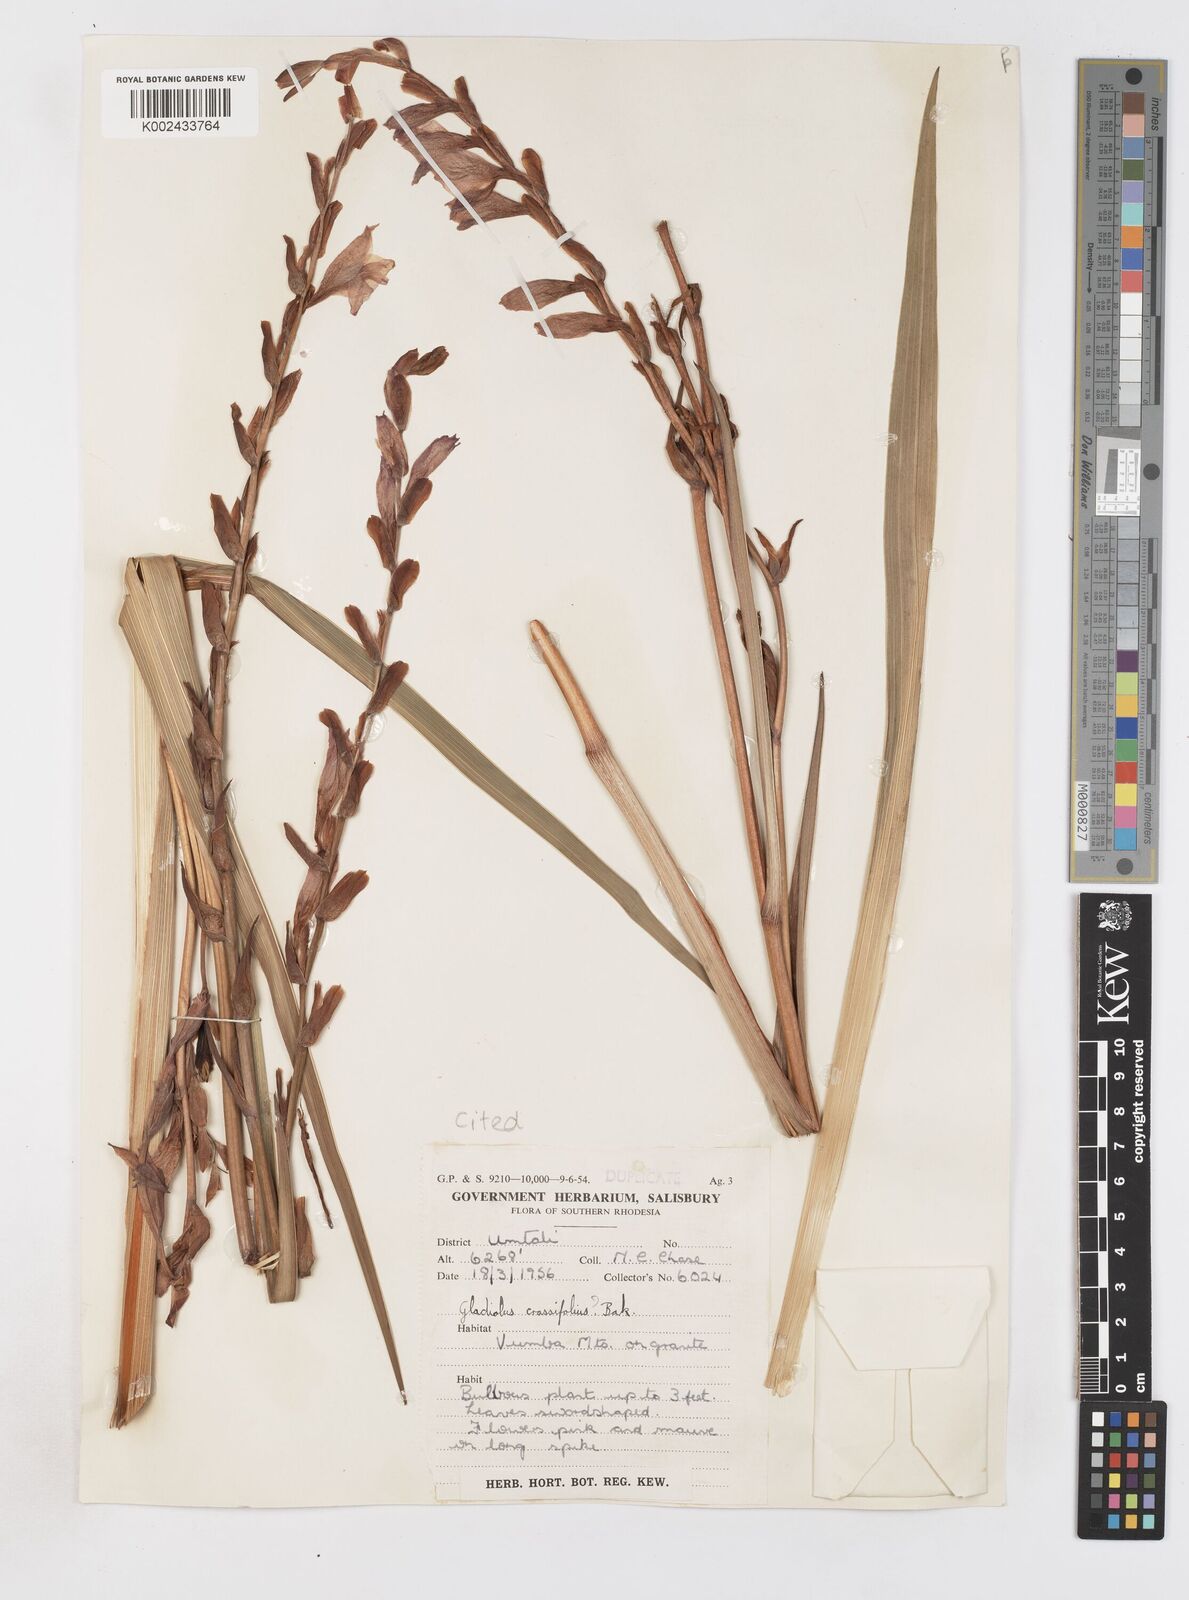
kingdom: Plantae
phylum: Tracheophyta
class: Liliopsida
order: Asparagales
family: Iridaceae
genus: Gladiolus
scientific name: Gladiolus crassifolius
